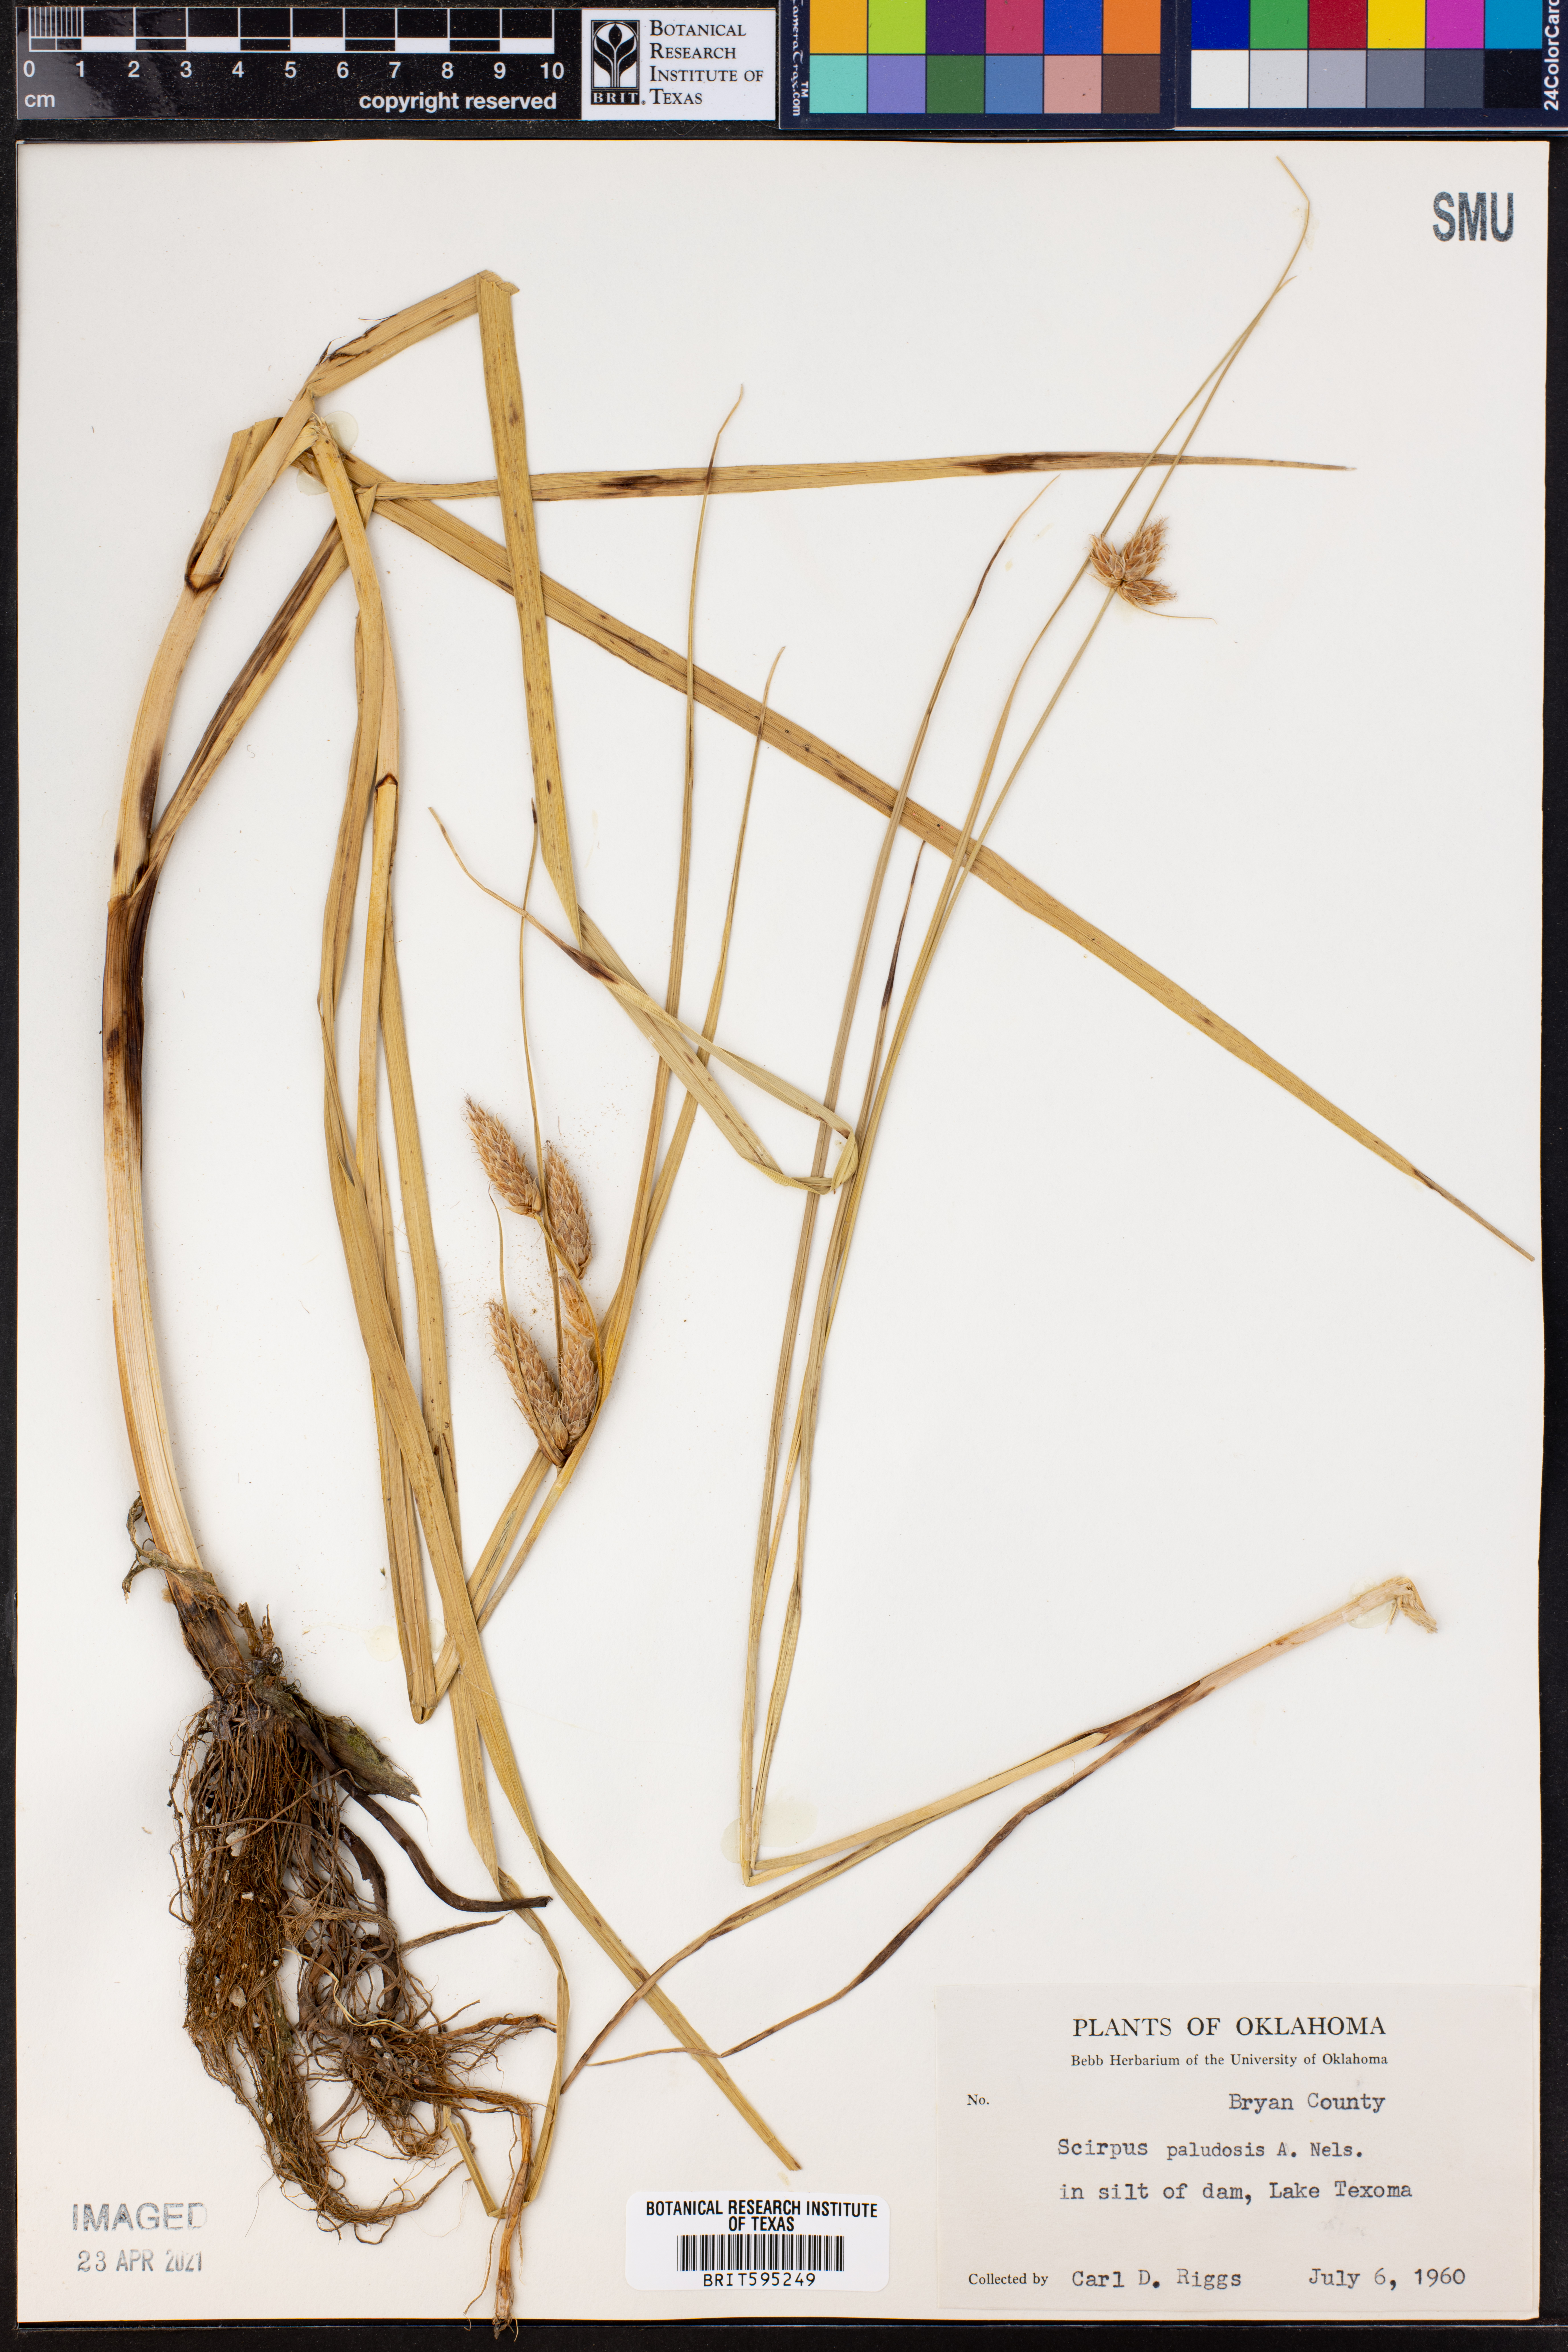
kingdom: Plantae
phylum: Tracheophyta
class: Liliopsida
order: Poales
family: Cyperaceae
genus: Bolboschoenus
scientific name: Bolboschoenus maritimus
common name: Sea club-rush
